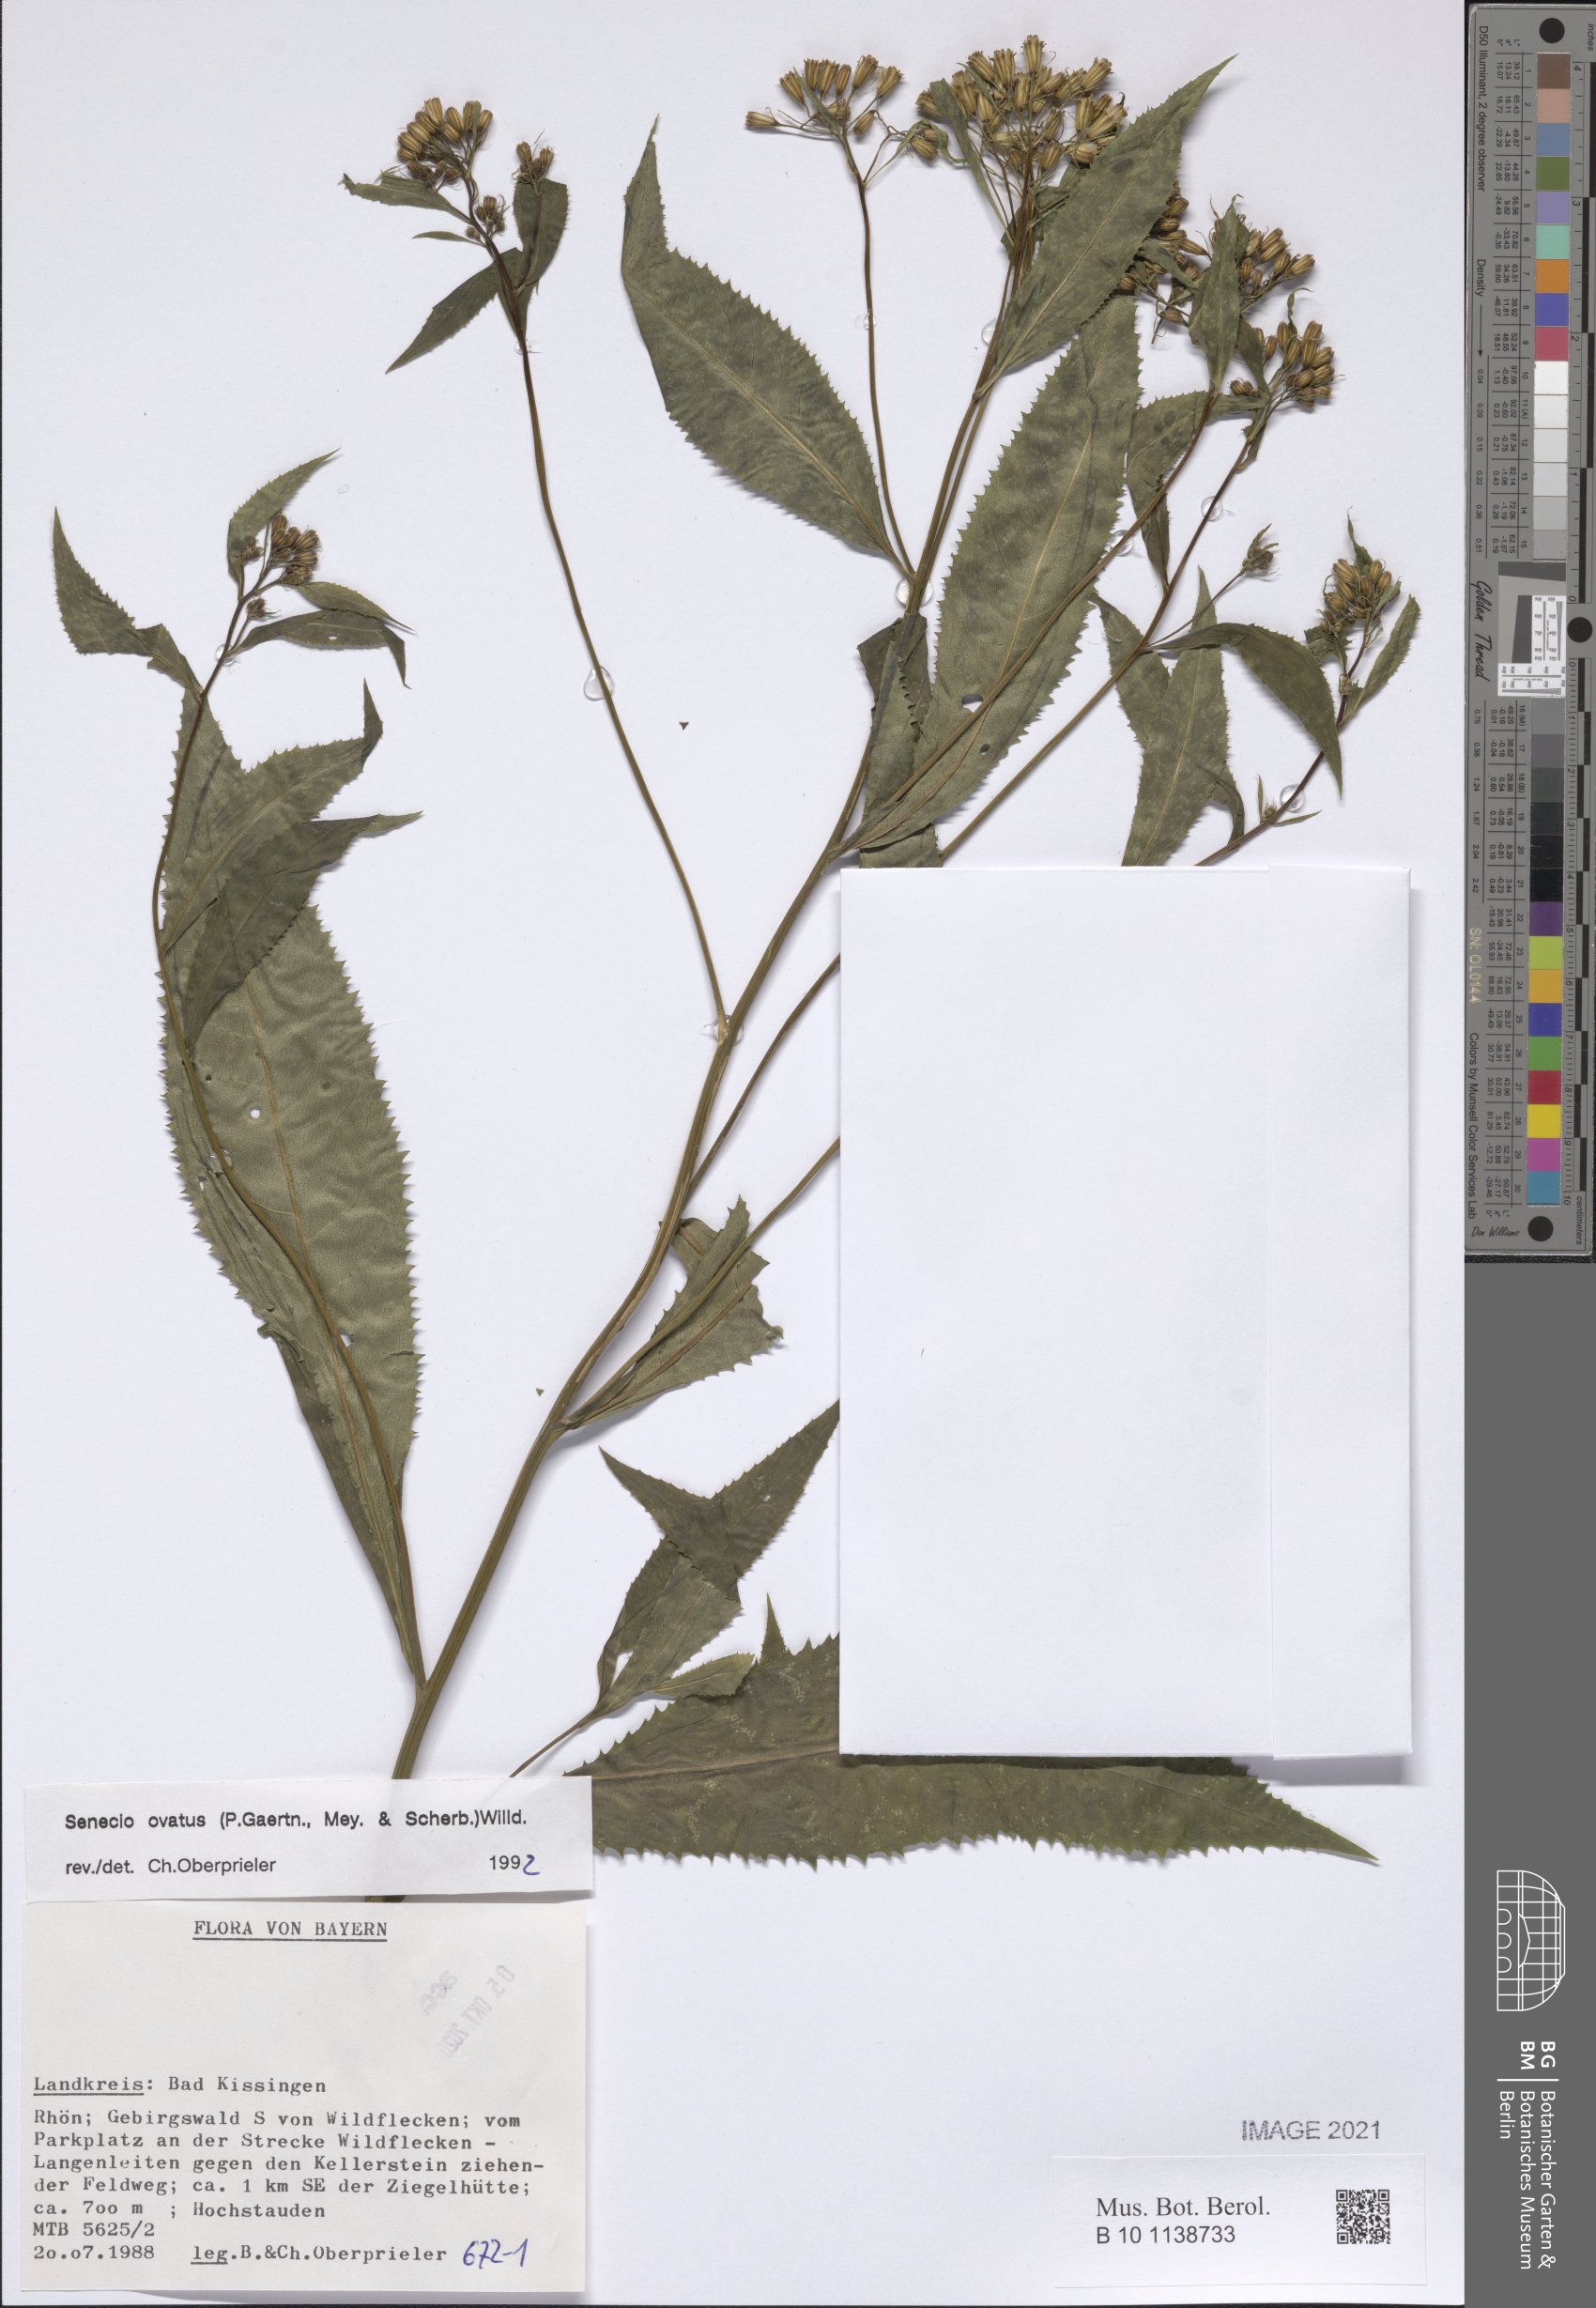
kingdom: Plantae
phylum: Tracheophyta
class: Magnoliopsida
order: Asterales
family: Asteraceae
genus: Senecio
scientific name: Senecio ovatus
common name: Wood ragwort
